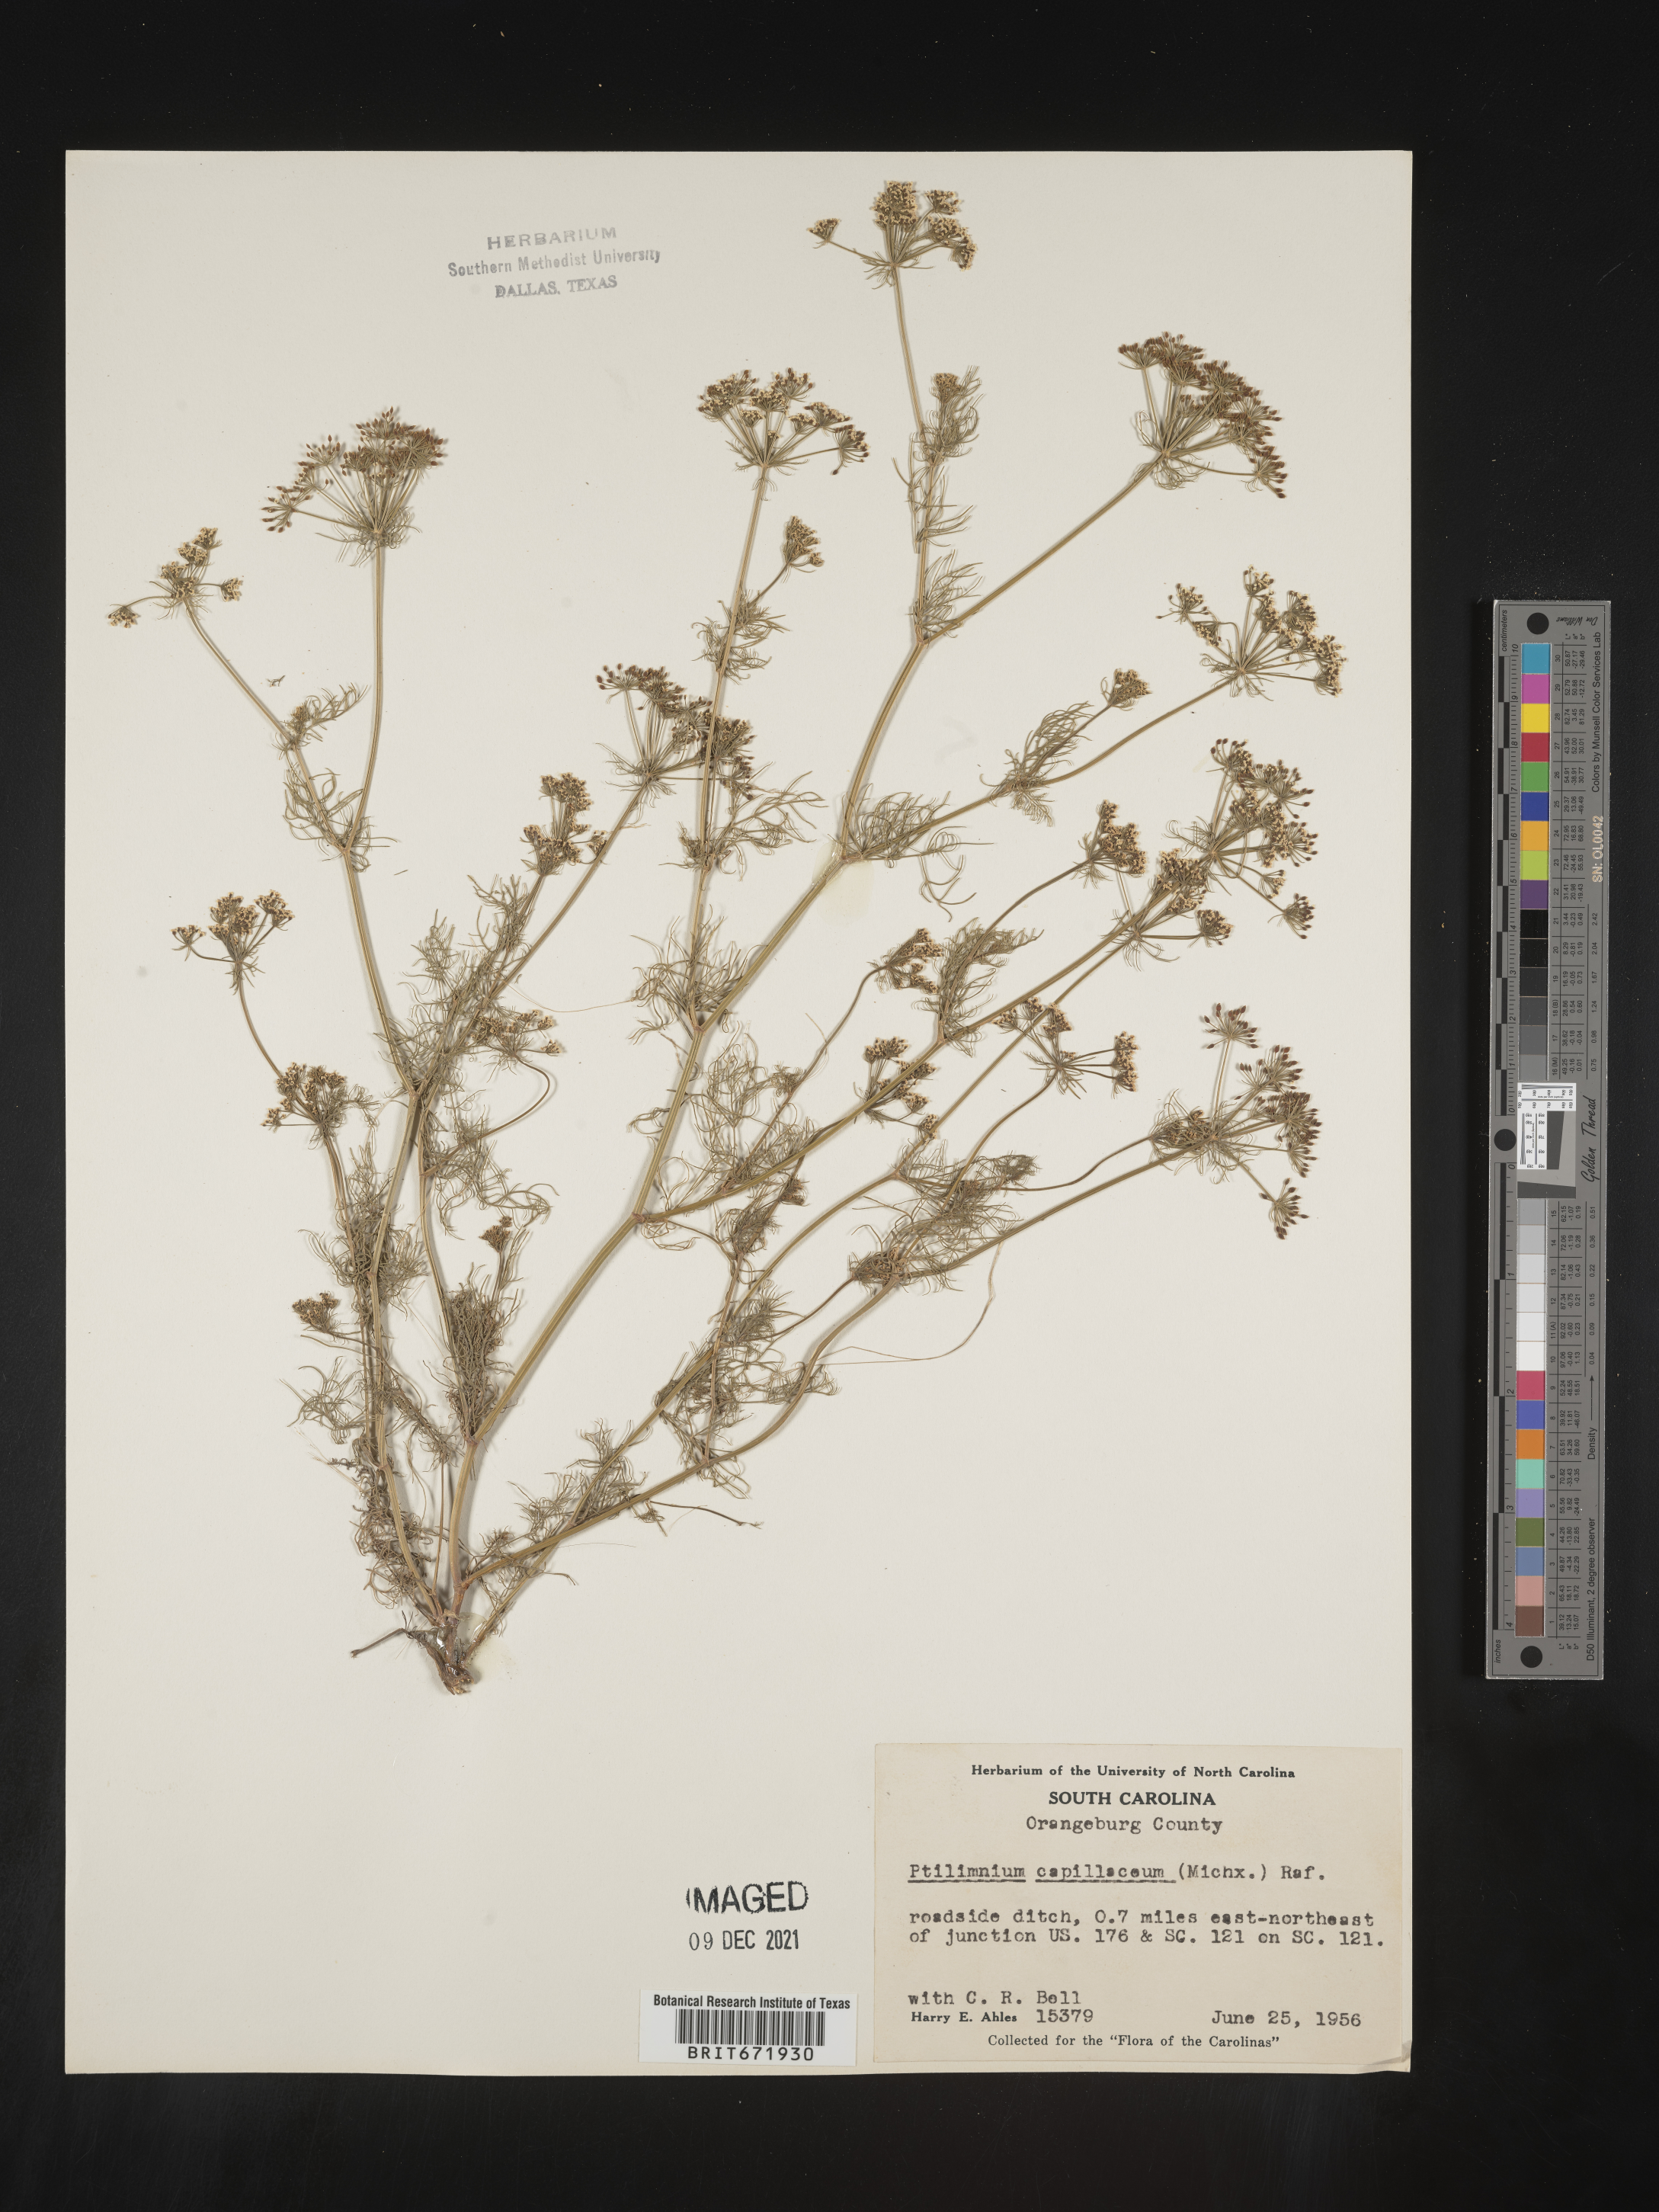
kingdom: Plantae
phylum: Tracheophyta
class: Magnoliopsida
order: Apiales
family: Apiaceae
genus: Ptilimnium
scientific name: Ptilimnium capillaceum
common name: Herbwilliam
